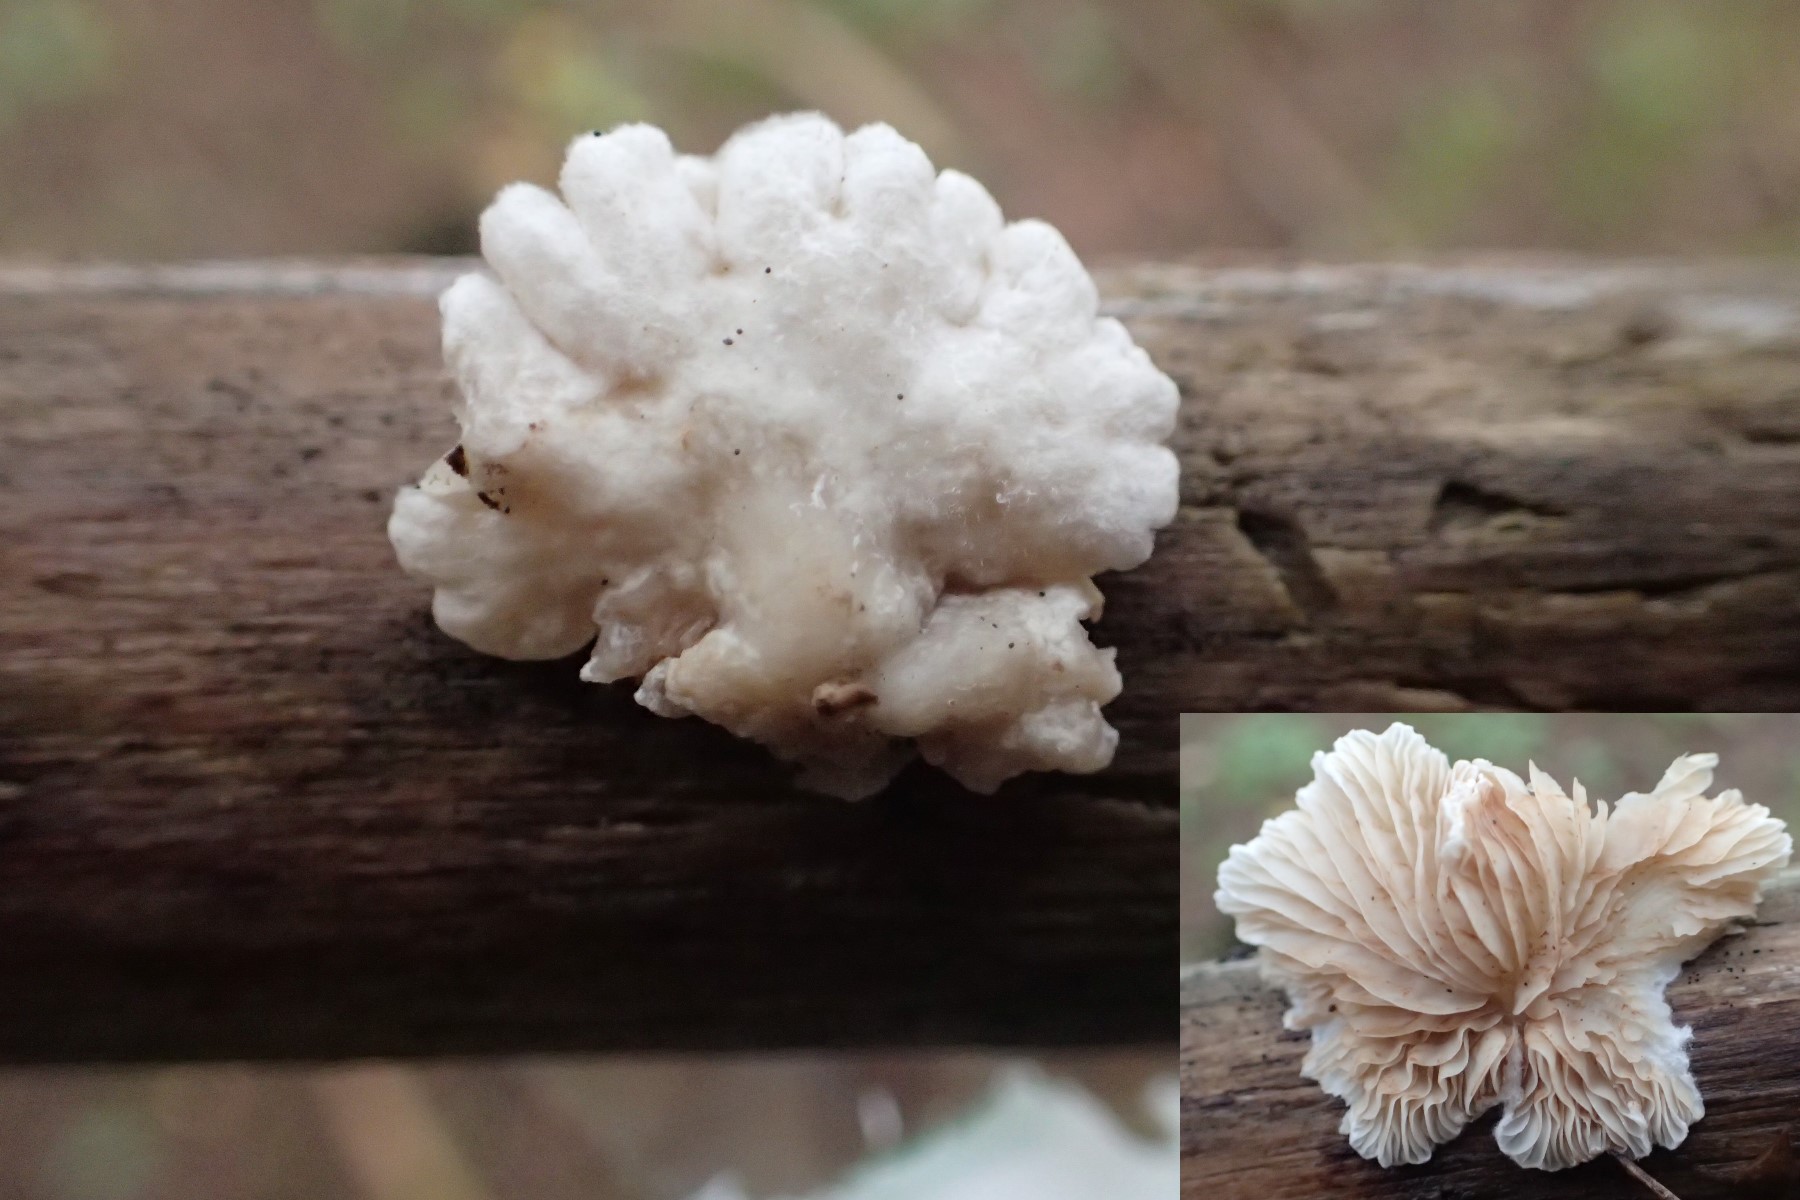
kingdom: Fungi
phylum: Basidiomycota
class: Agaricomycetes
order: Agaricales
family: Crepidotaceae
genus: Crepidotus
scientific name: Crepidotus
